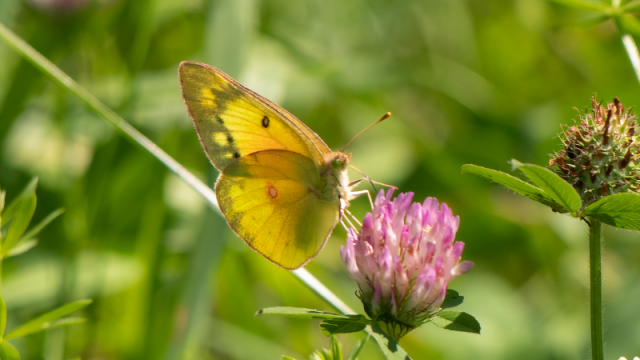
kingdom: Animalia
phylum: Arthropoda
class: Insecta
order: Lepidoptera
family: Pieridae
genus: Colias
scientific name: Colias eurytheme
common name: Orange Sulphur
